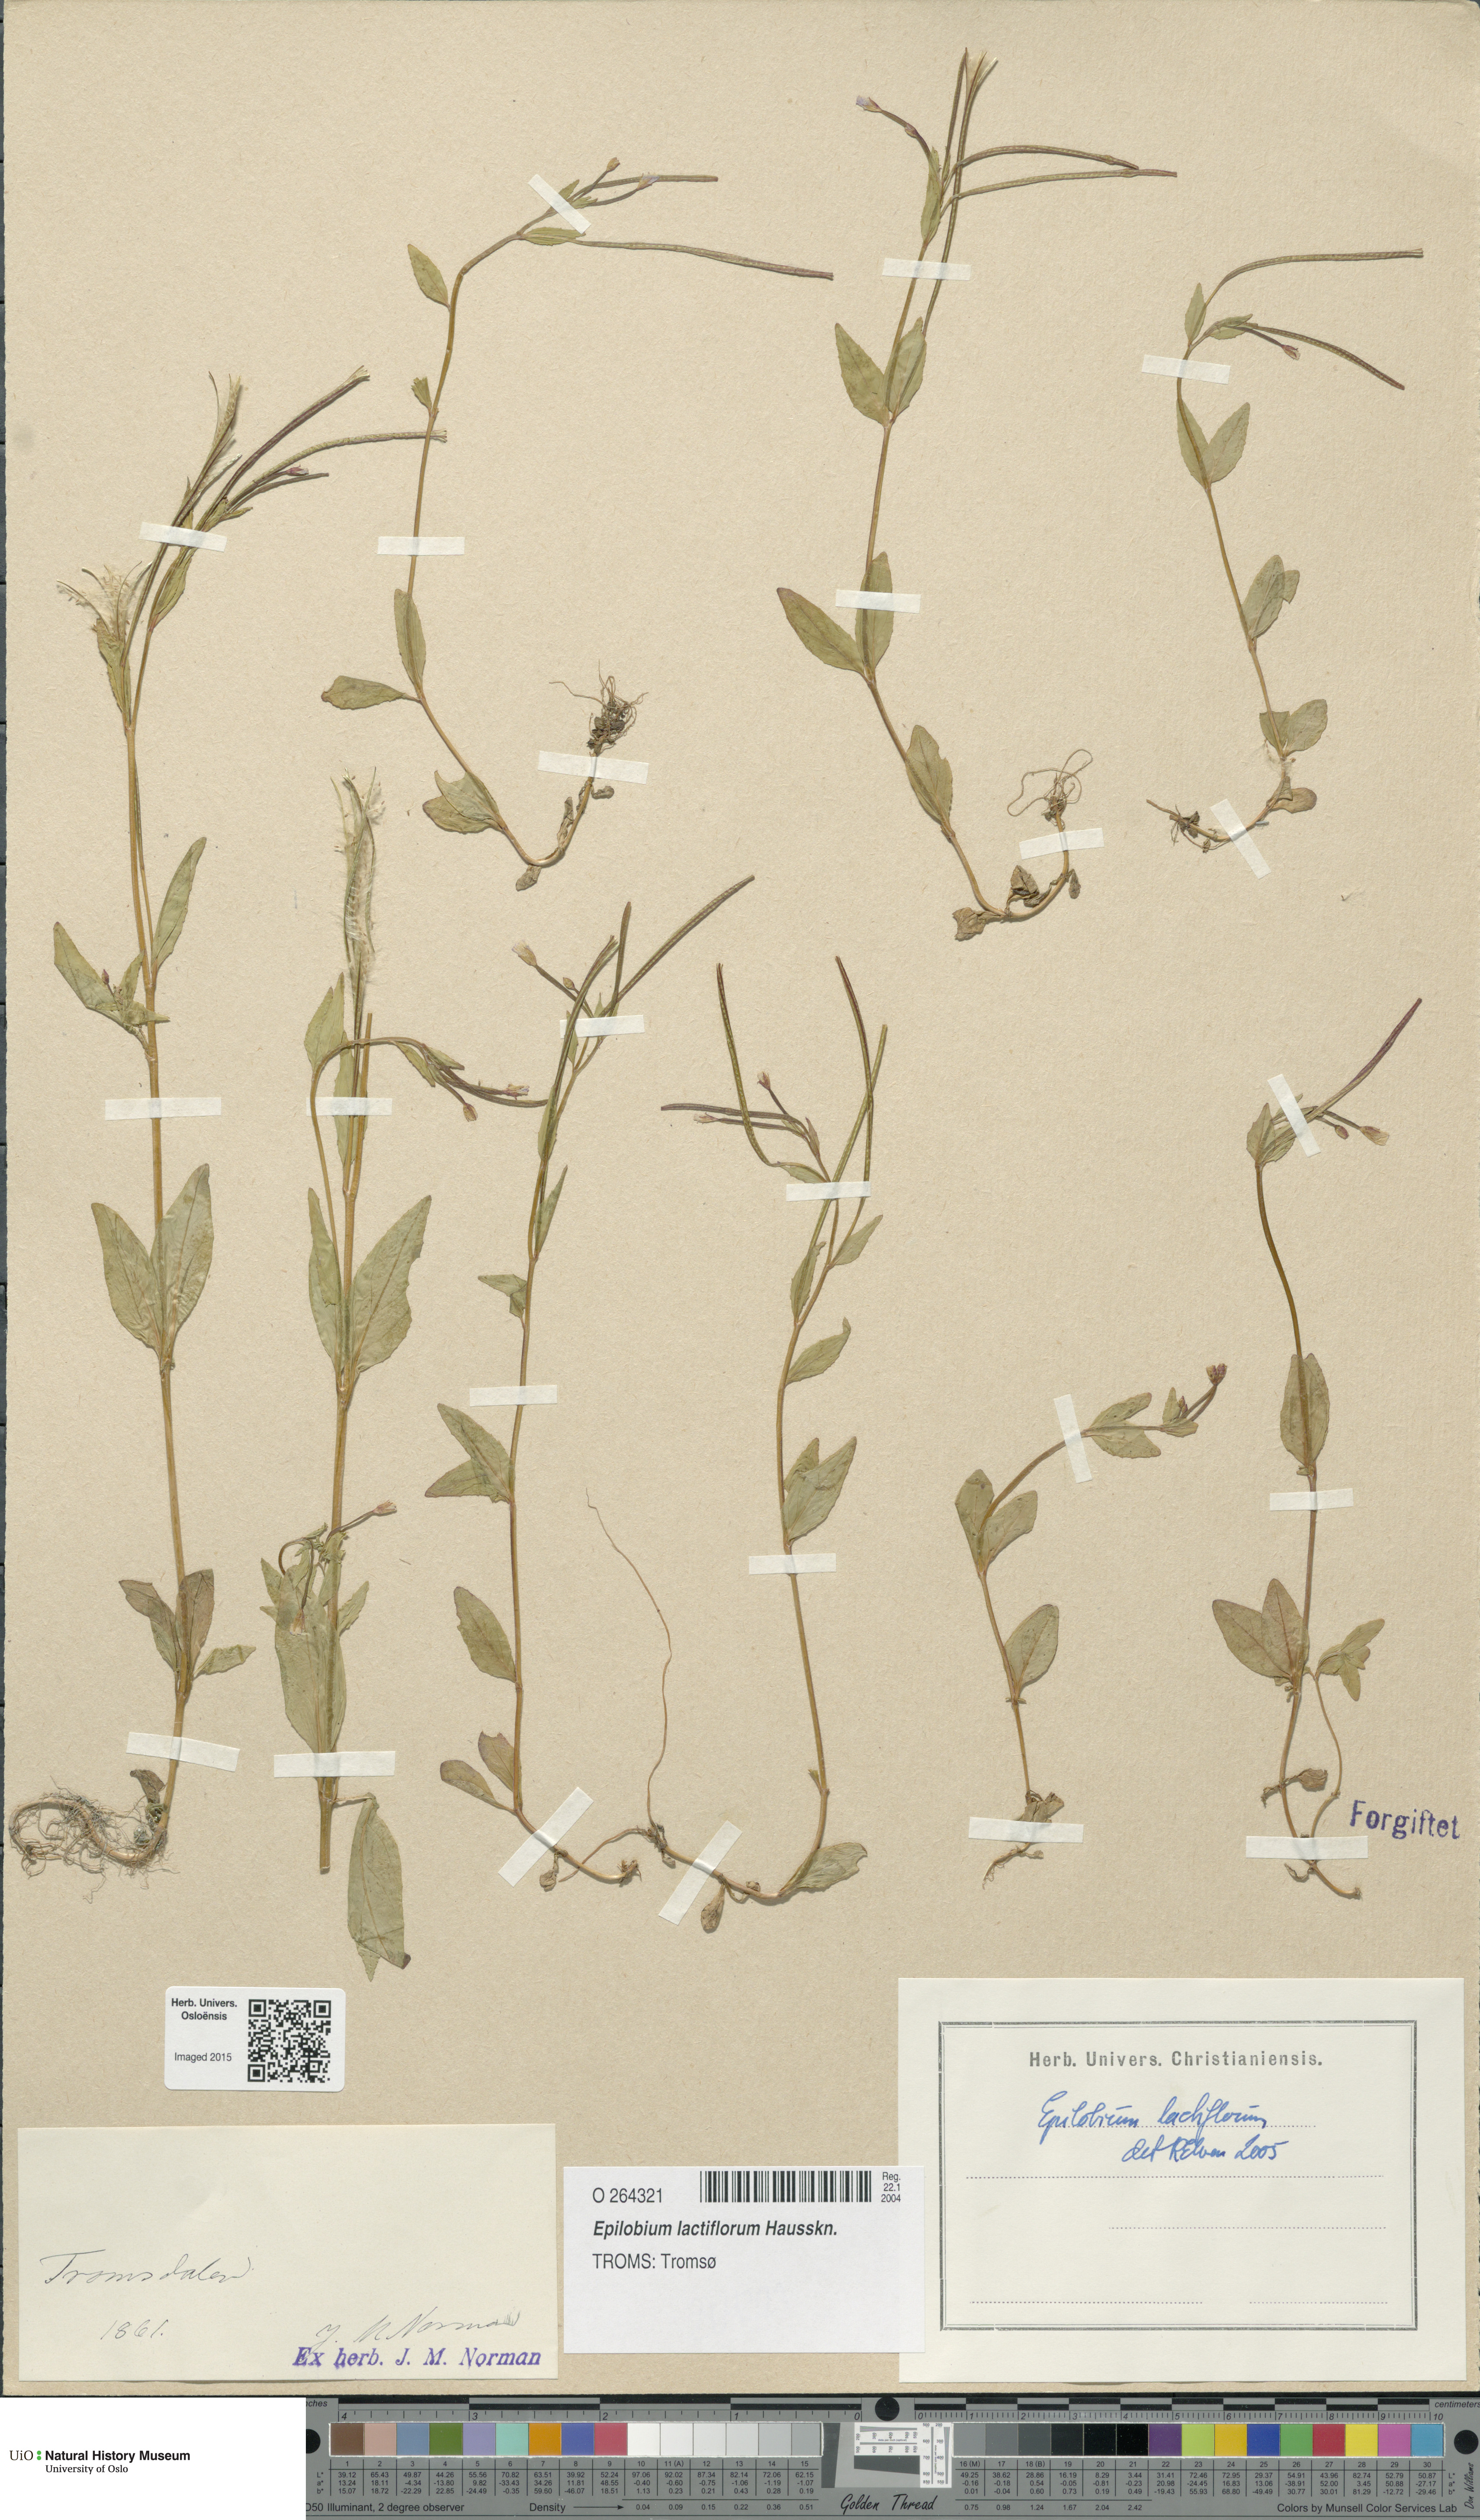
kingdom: Plantae
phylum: Tracheophyta
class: Magnoliopsida
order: Myrtales
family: Onagraceae
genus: Epilobium
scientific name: Epilobium lactiflorum
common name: Milkflower willowherb
